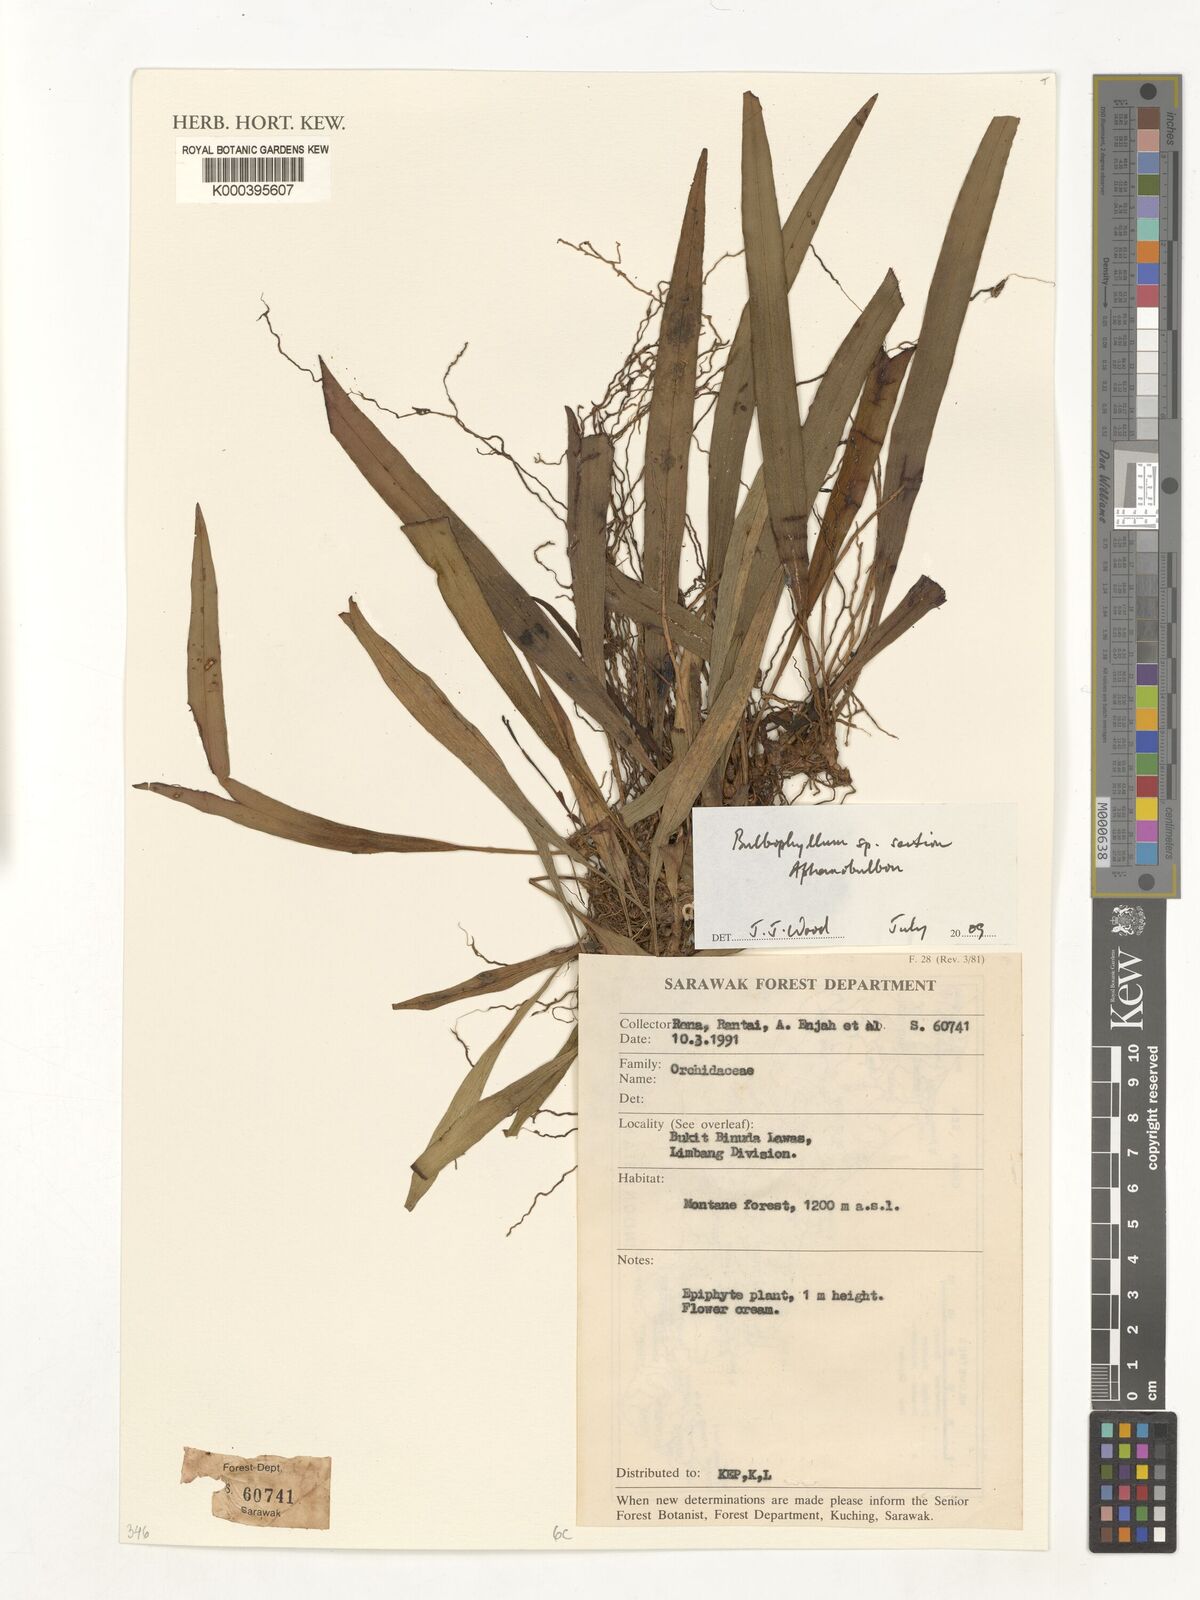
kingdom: Plantae
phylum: Tracheophyta
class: Liliopsida
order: Asparagales
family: Orchidaceae
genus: Bulbophyllum
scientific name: Bulbophyllum
